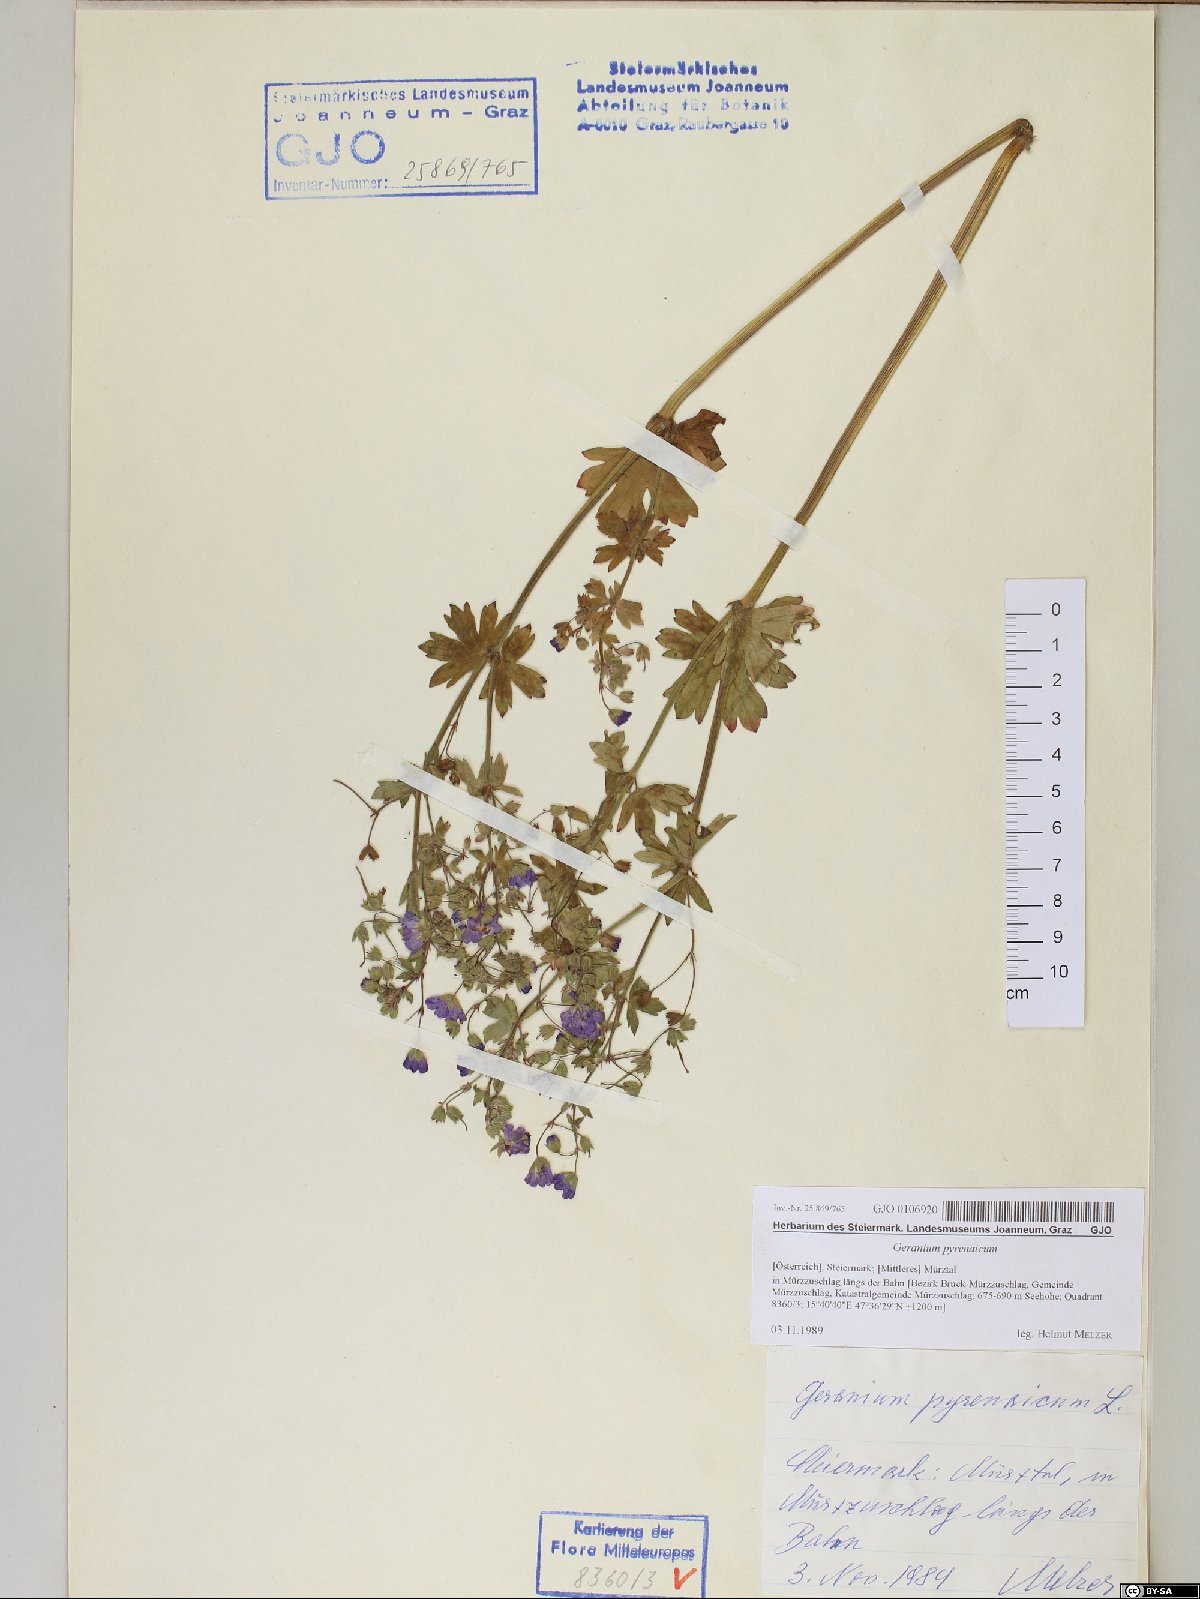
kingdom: Plantae
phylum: Tracheophyta
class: Magnoliopsida
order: Geraniales
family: Geraniaceae
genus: Geranium
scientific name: Geranium pyrenaicum
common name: Hedgerow crane's-bill
